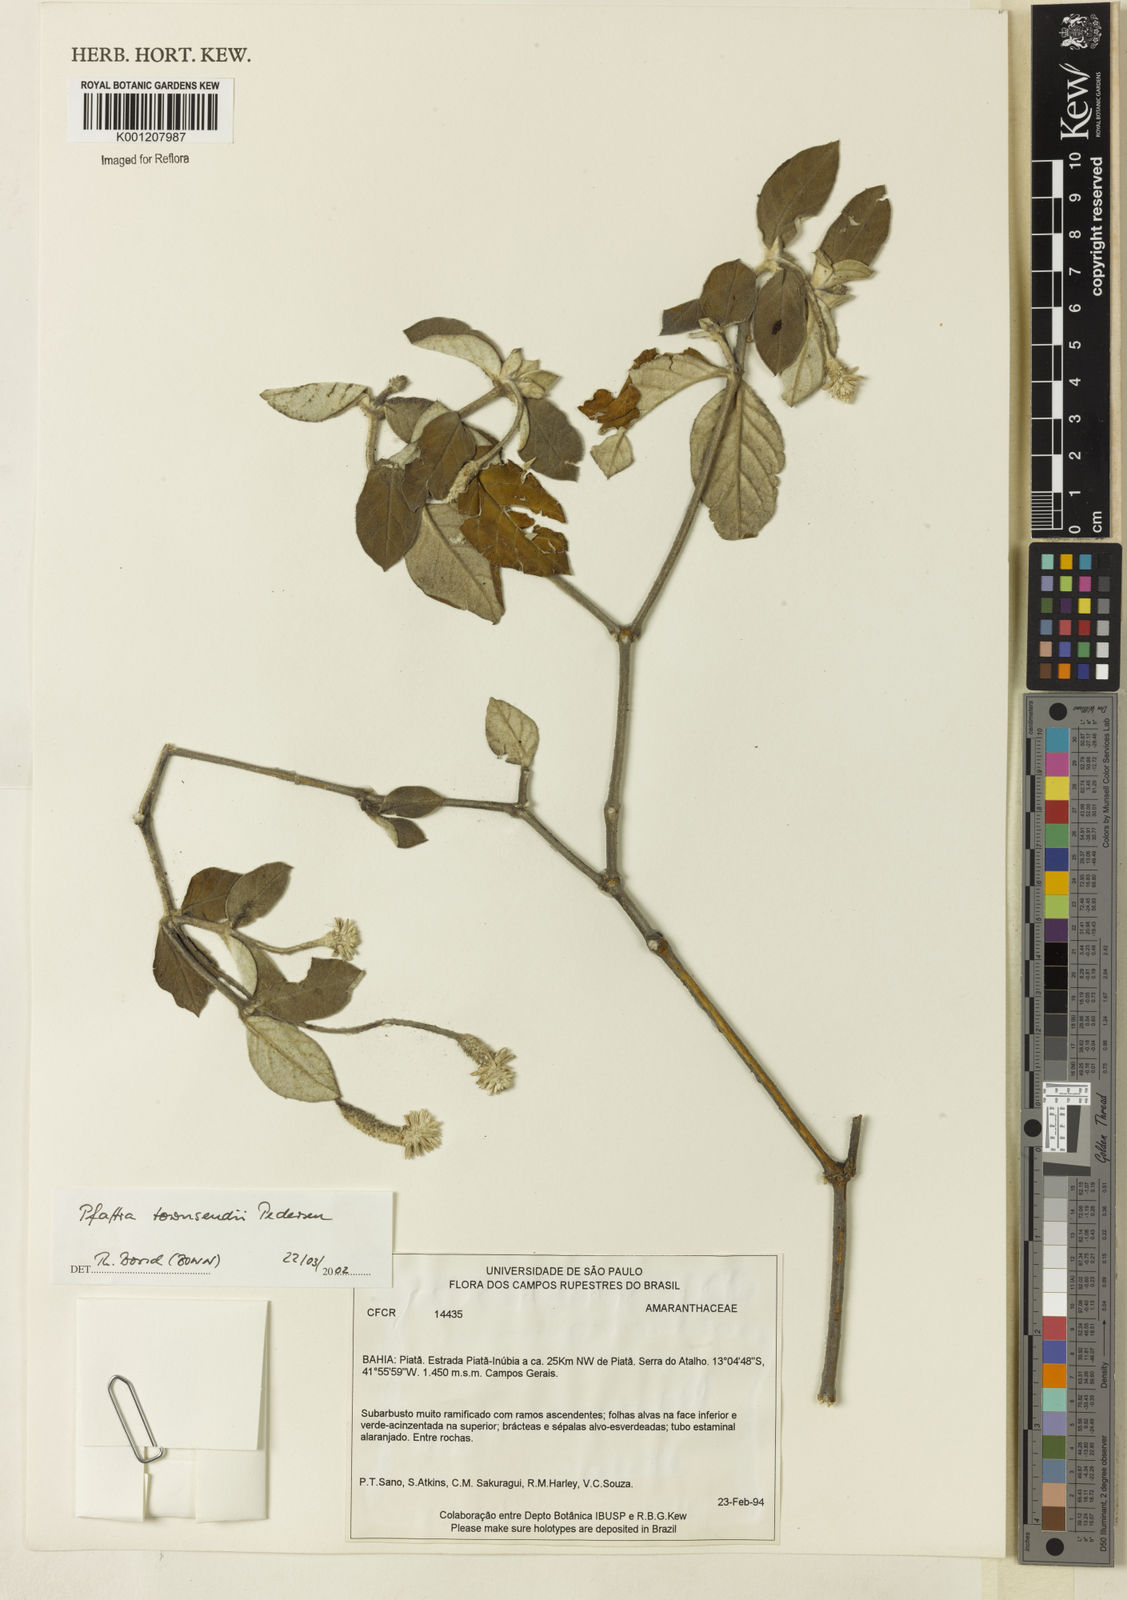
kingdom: Plantae
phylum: Tracheophyta
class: Magnoliopsida
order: Caryophyllales
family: Amaranthaceae
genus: Pfaffia
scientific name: Pfaffia townsendii
